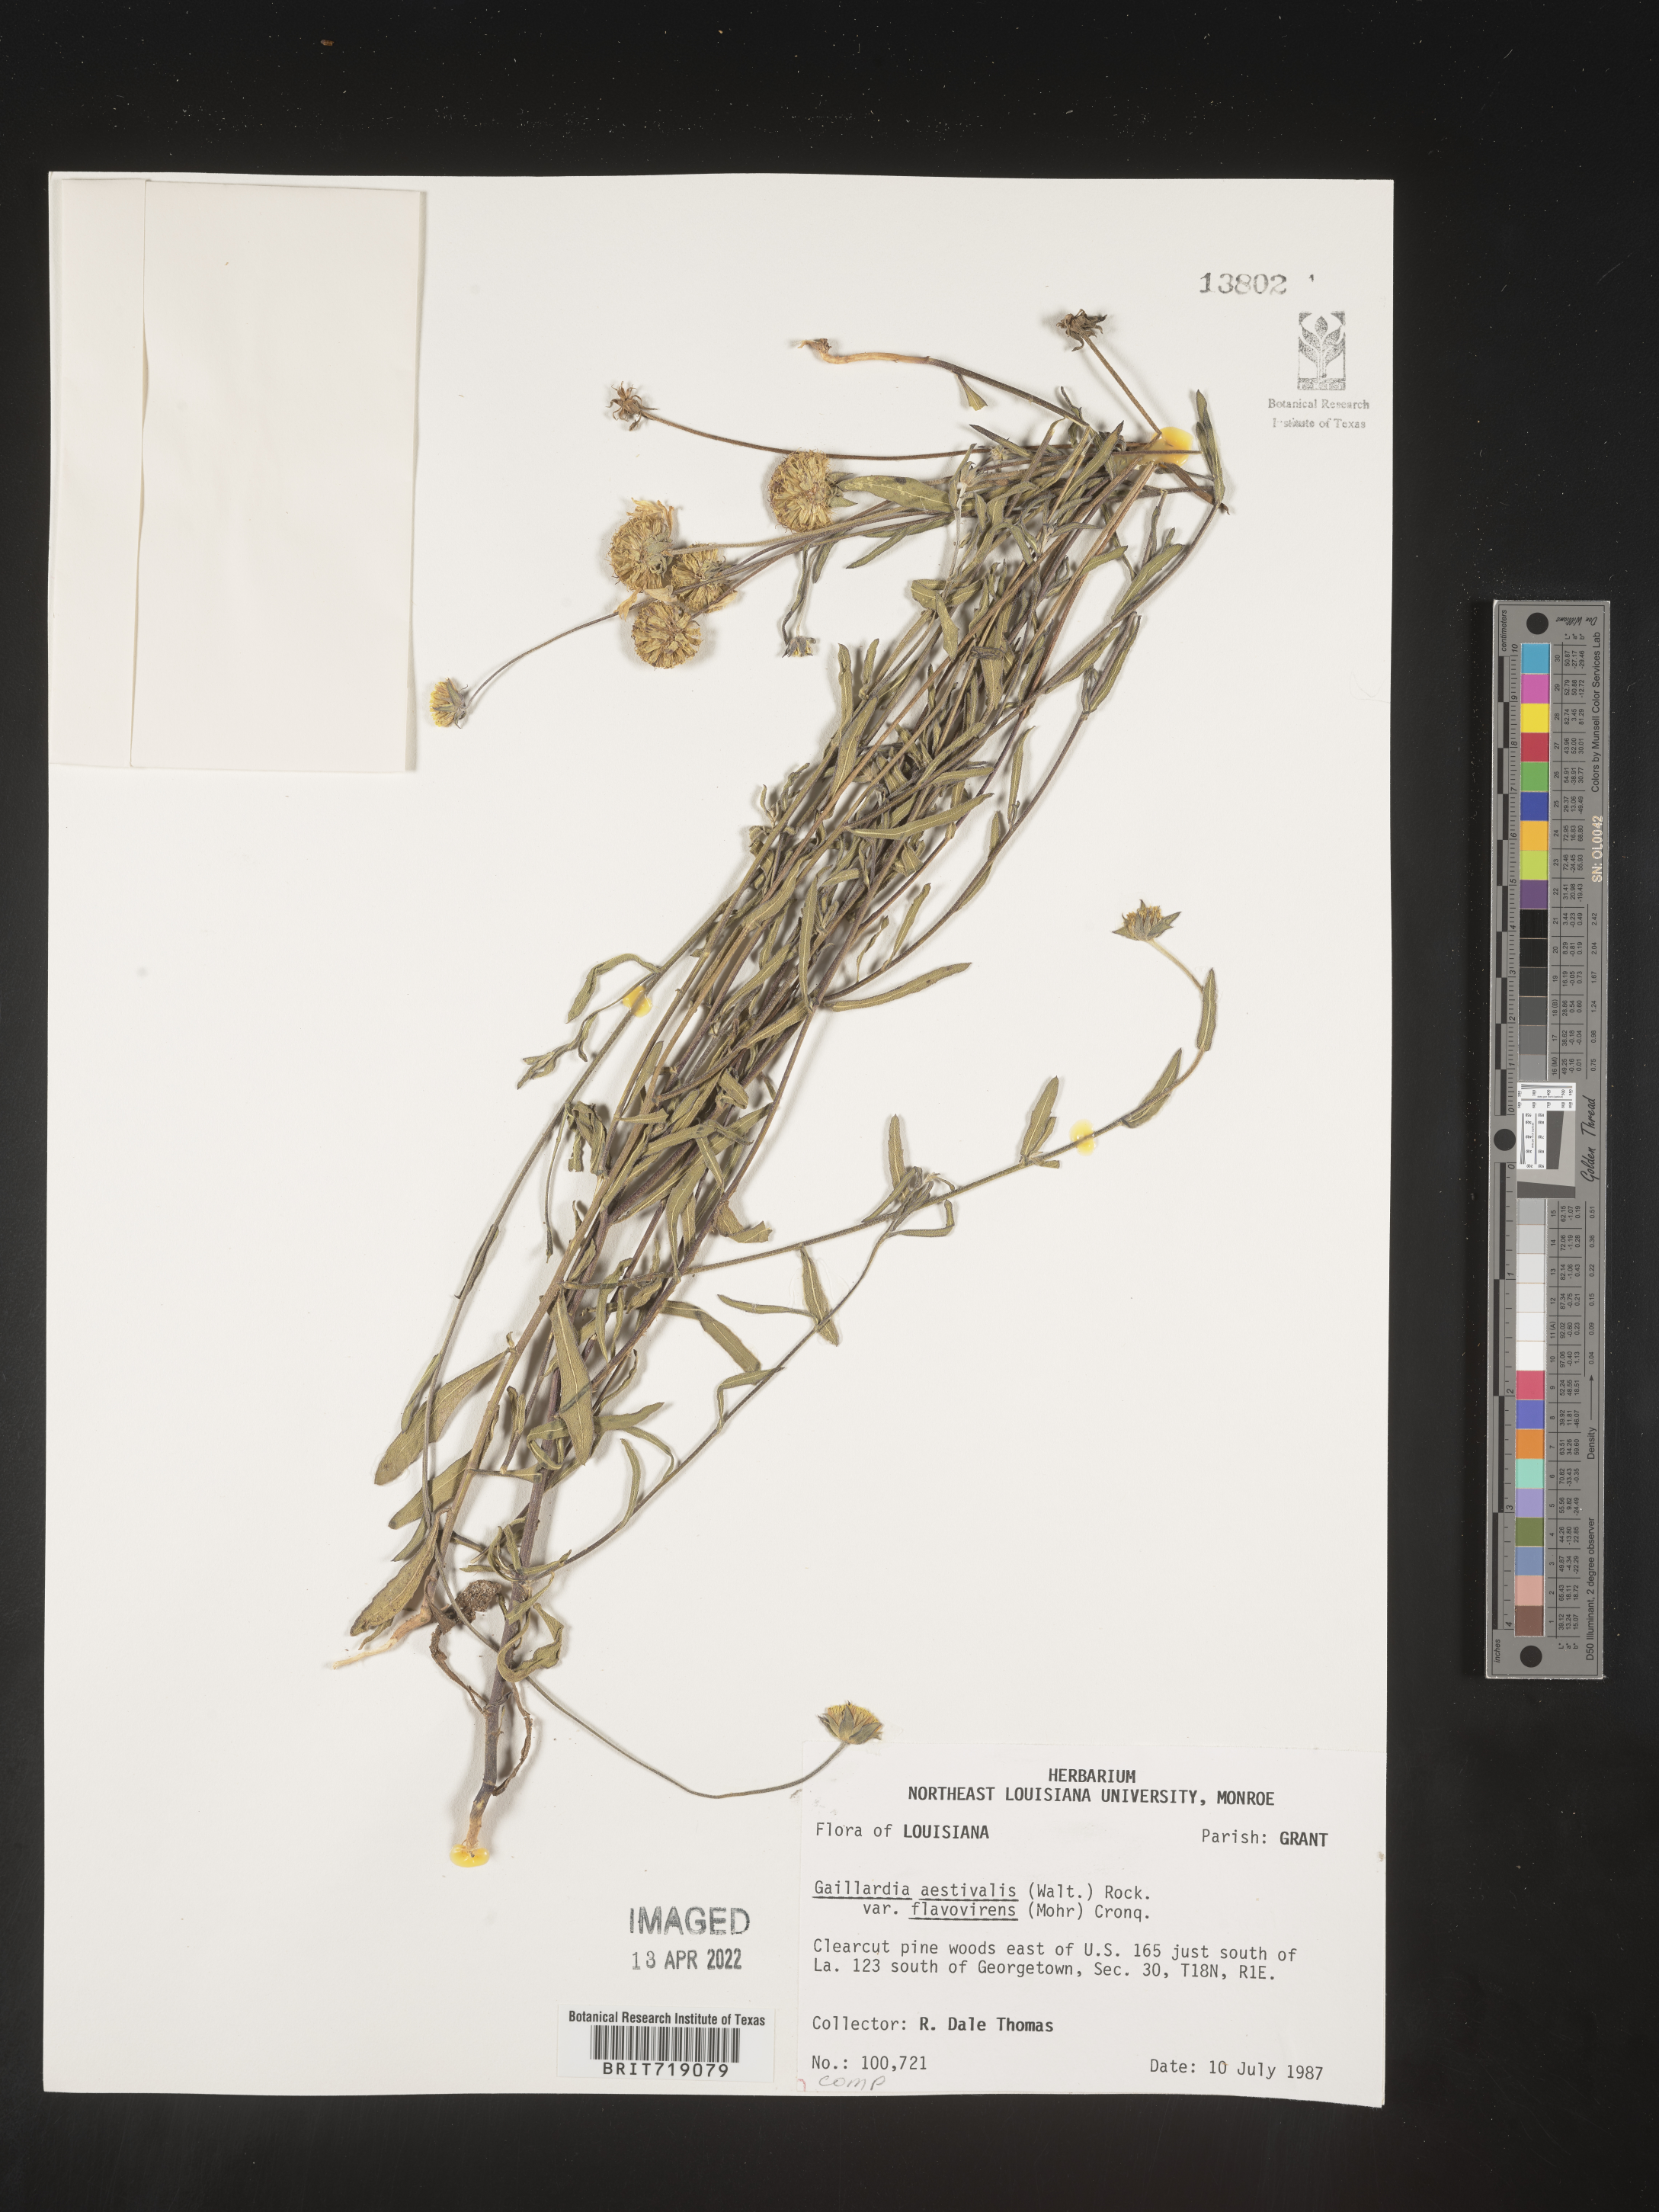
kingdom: Plantae
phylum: Tracheophyta
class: Magnoliopsida
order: Asterales
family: Asteraceae
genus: Gaillardia
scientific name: Gaillardia aestivalis
